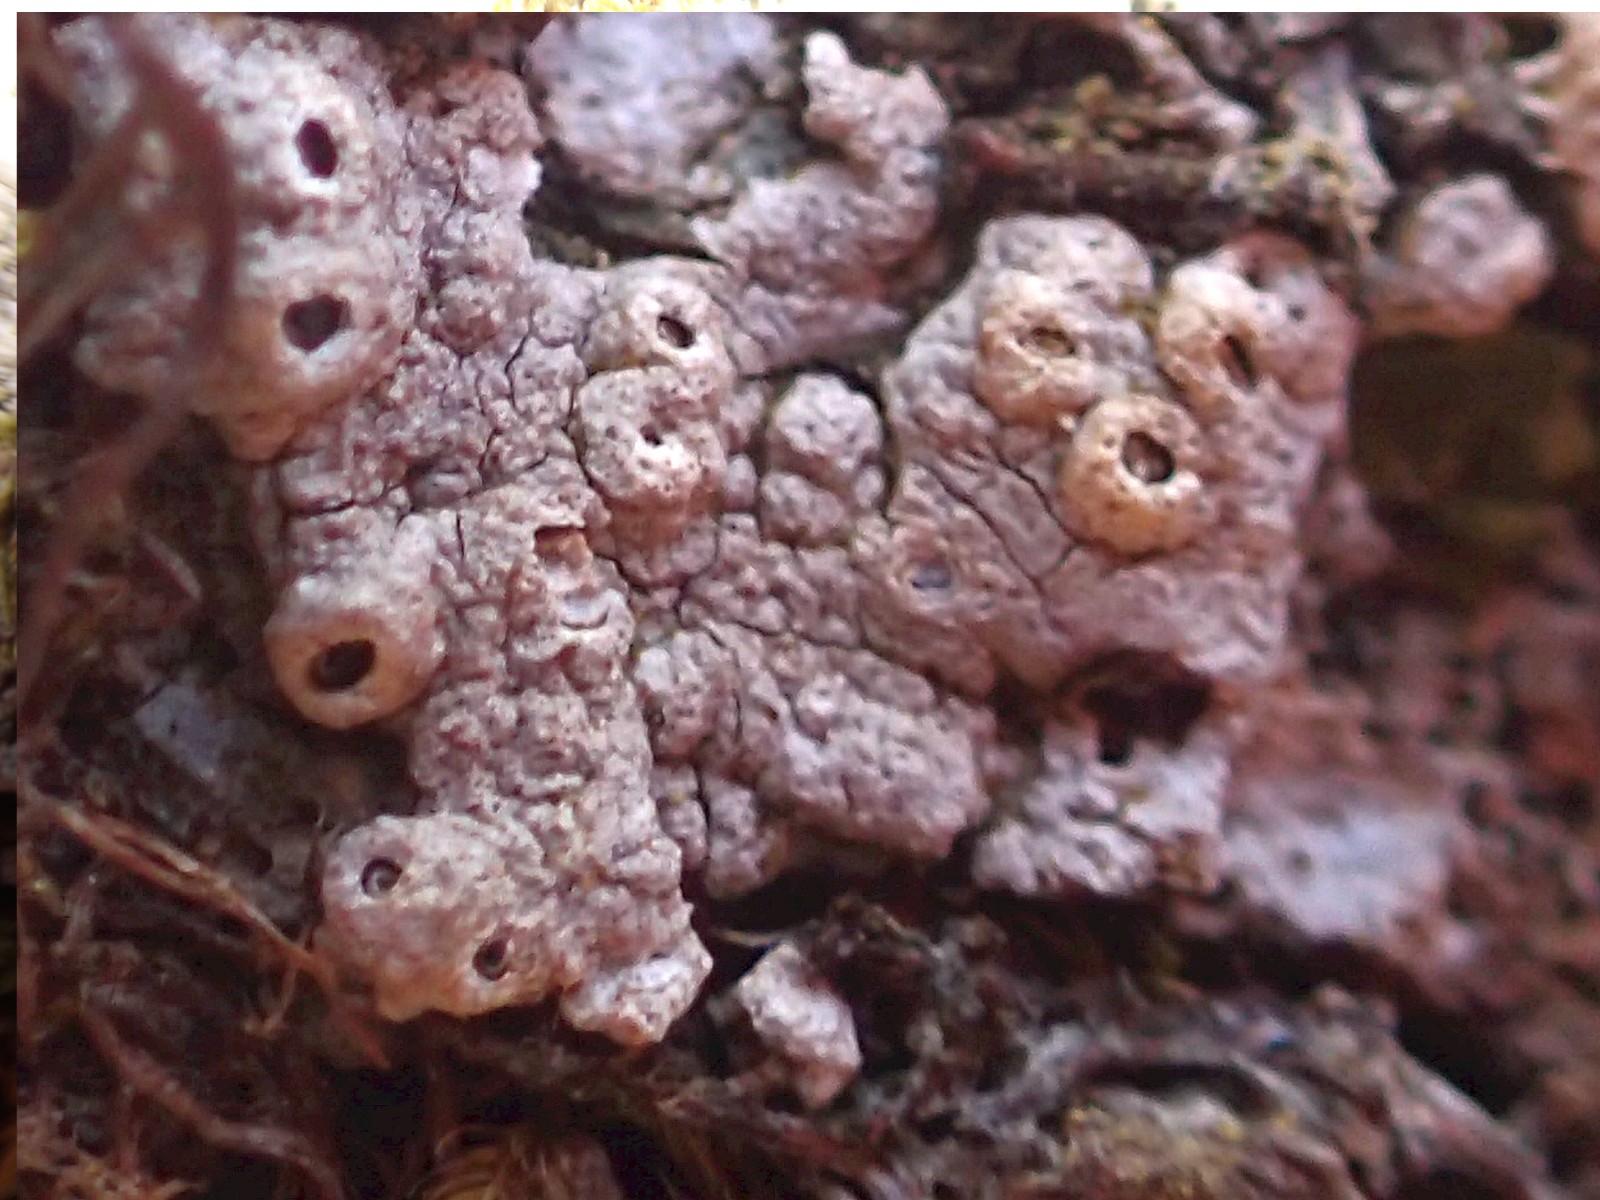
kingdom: Fungi
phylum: Ascomycota
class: Lecanoromycetes
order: Ostropales
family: Graphidaceae
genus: Thelotrema
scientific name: Thelotrema lepadinum
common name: almindelig slørkantlav
